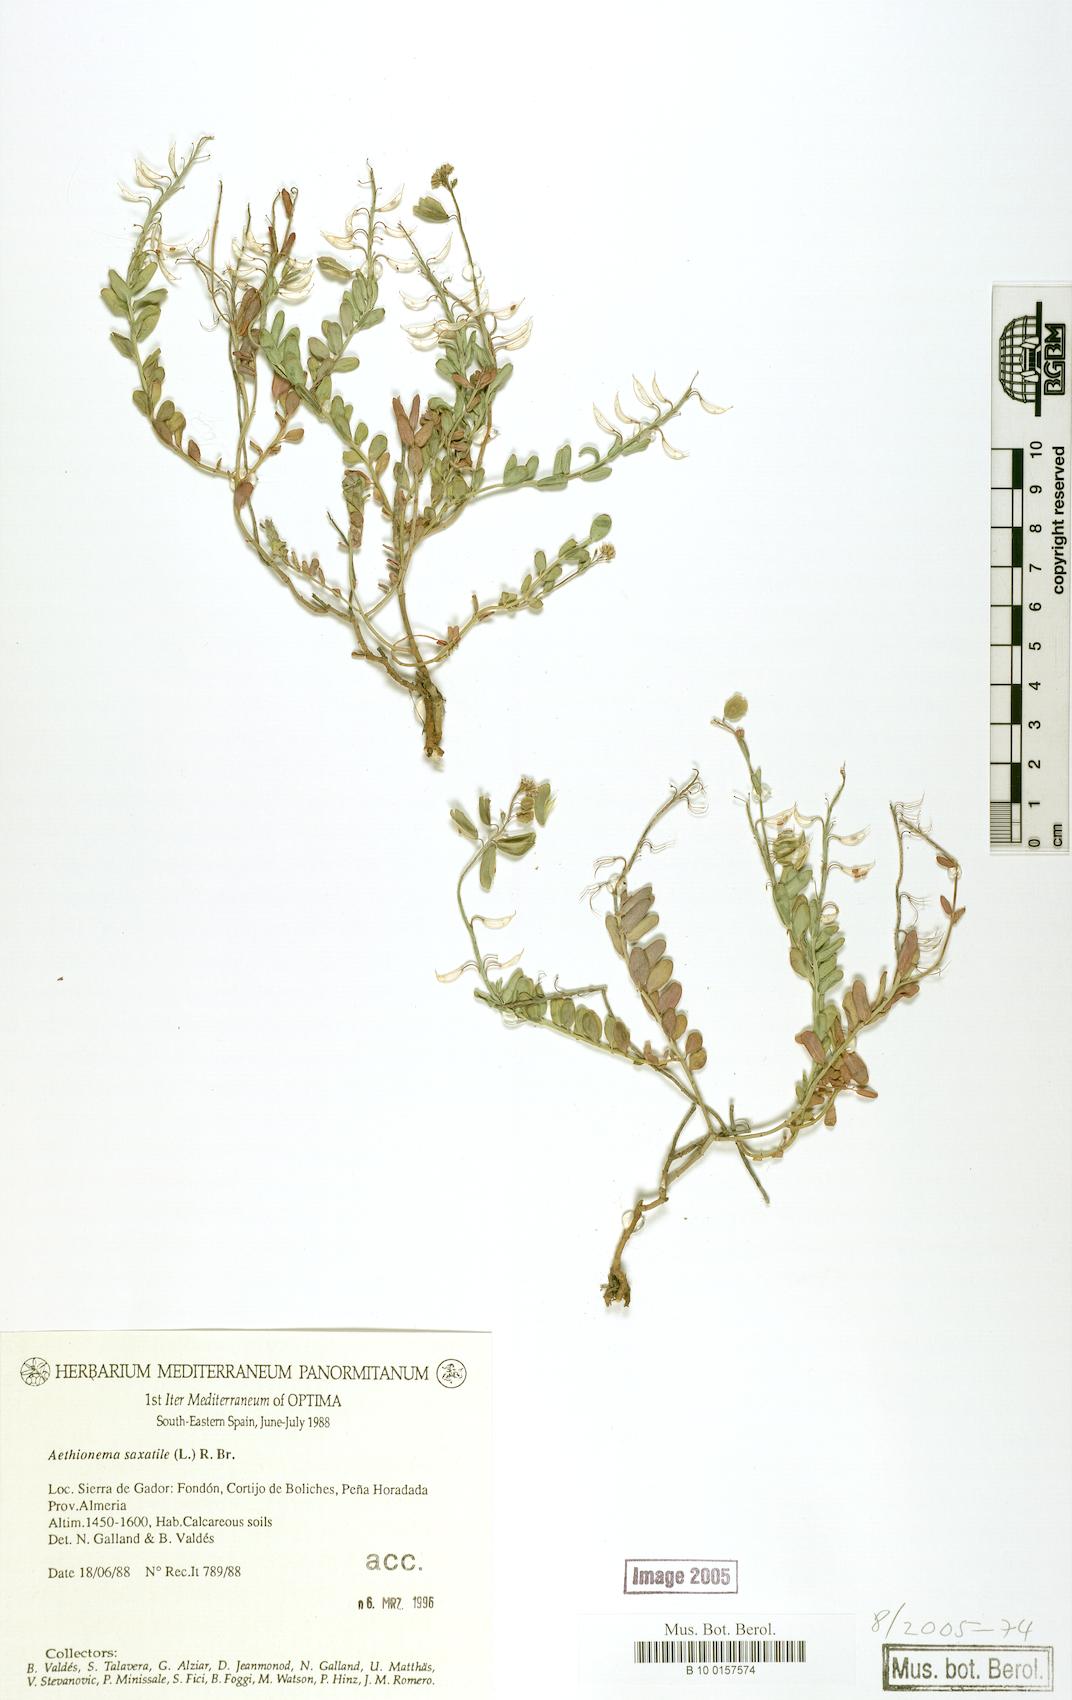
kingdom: Plantae
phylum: Tracheophyta
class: Magnoliopsida
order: Brassicales
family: Brassicaceae
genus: Aethionema
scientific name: Aethionema saxatile
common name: Burnt candytuft
